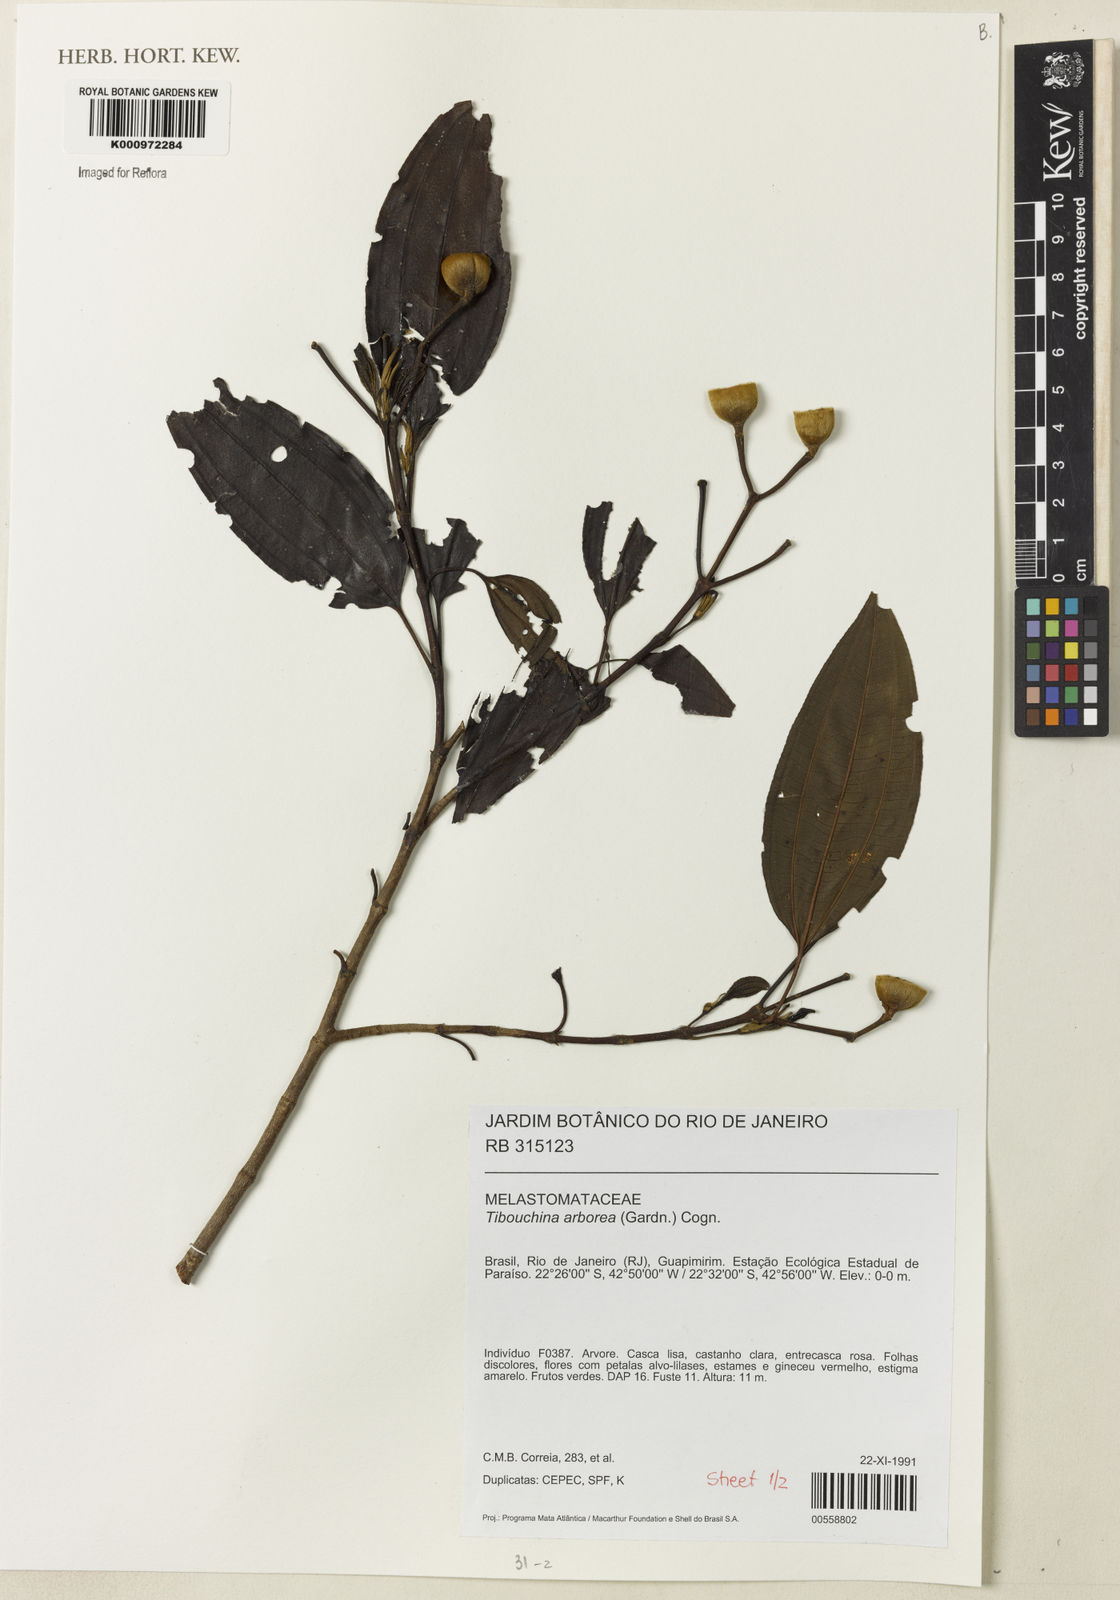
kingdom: Plantae
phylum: Tracheophyta
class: Magnoliopsida
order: Myrtales
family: Melastomataceae
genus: Pleroma
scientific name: Pleroma arboreum
